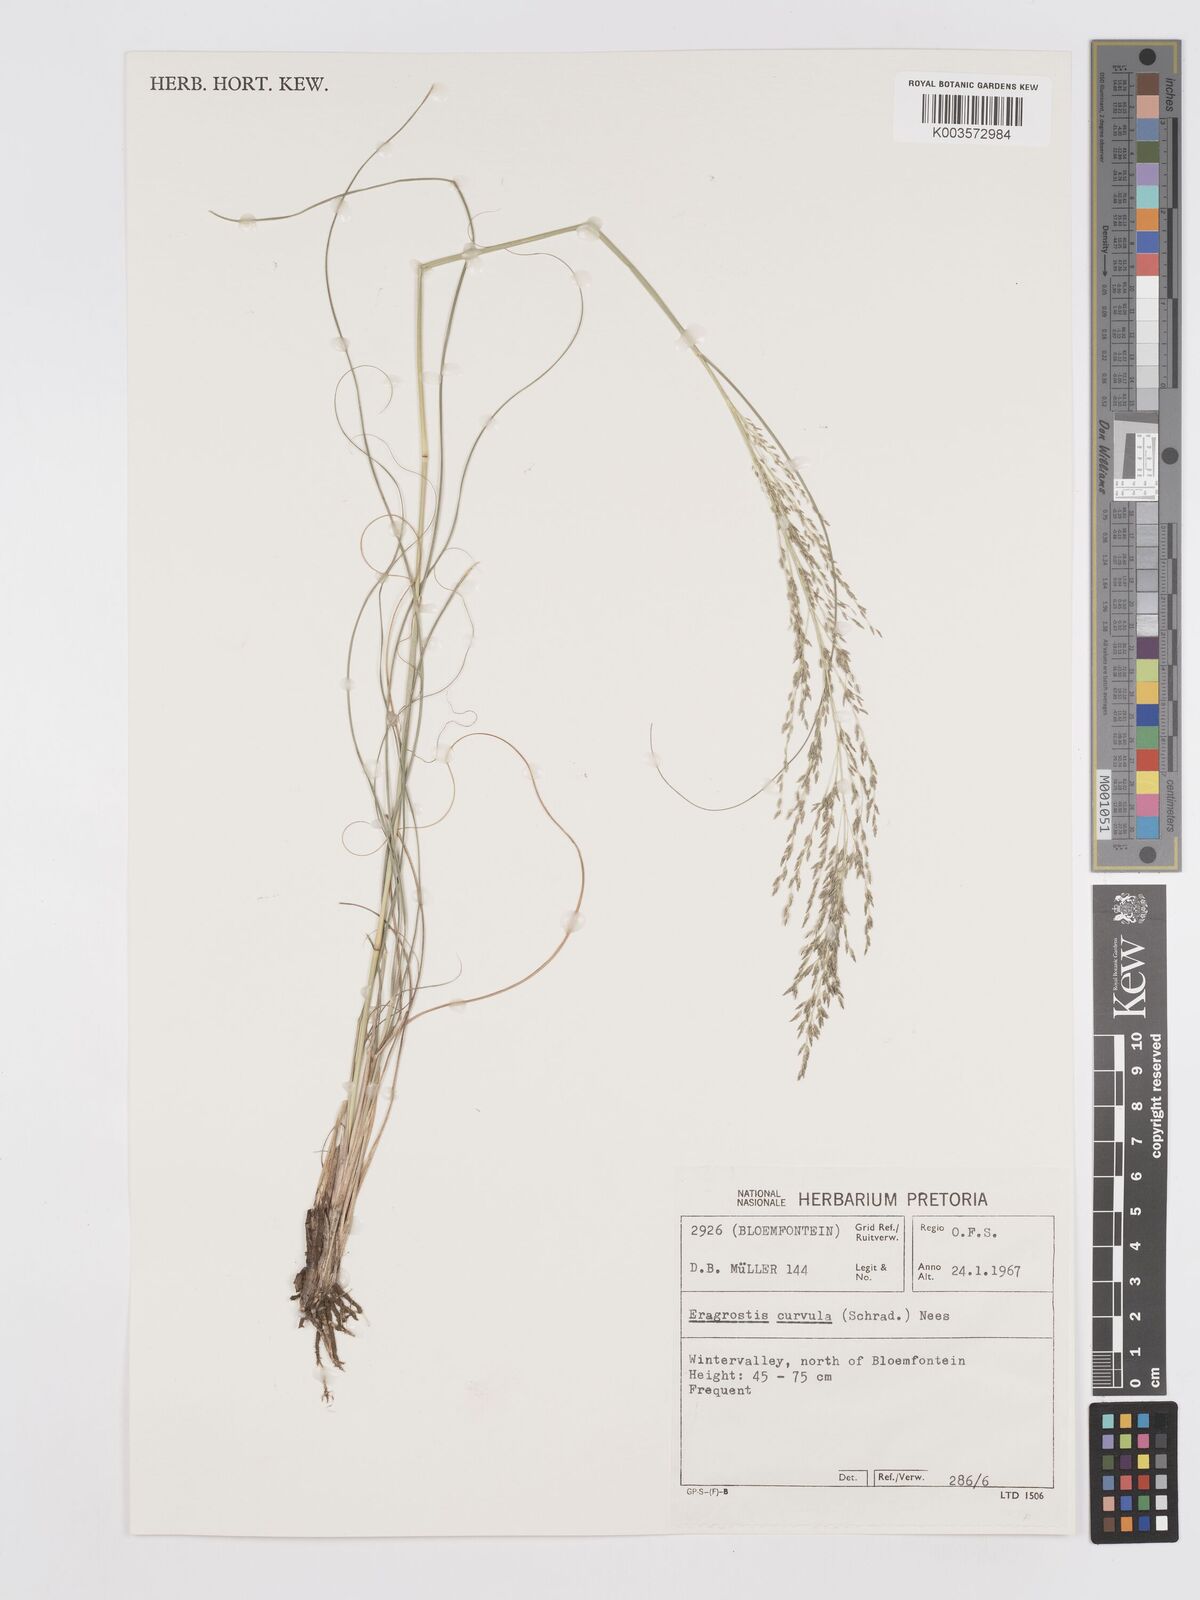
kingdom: Plantae
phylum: Tracheophyta
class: Liliopsida
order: Poales
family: Poaceae
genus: Eragrostis
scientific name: Eragrostis curvula
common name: African love-grass
